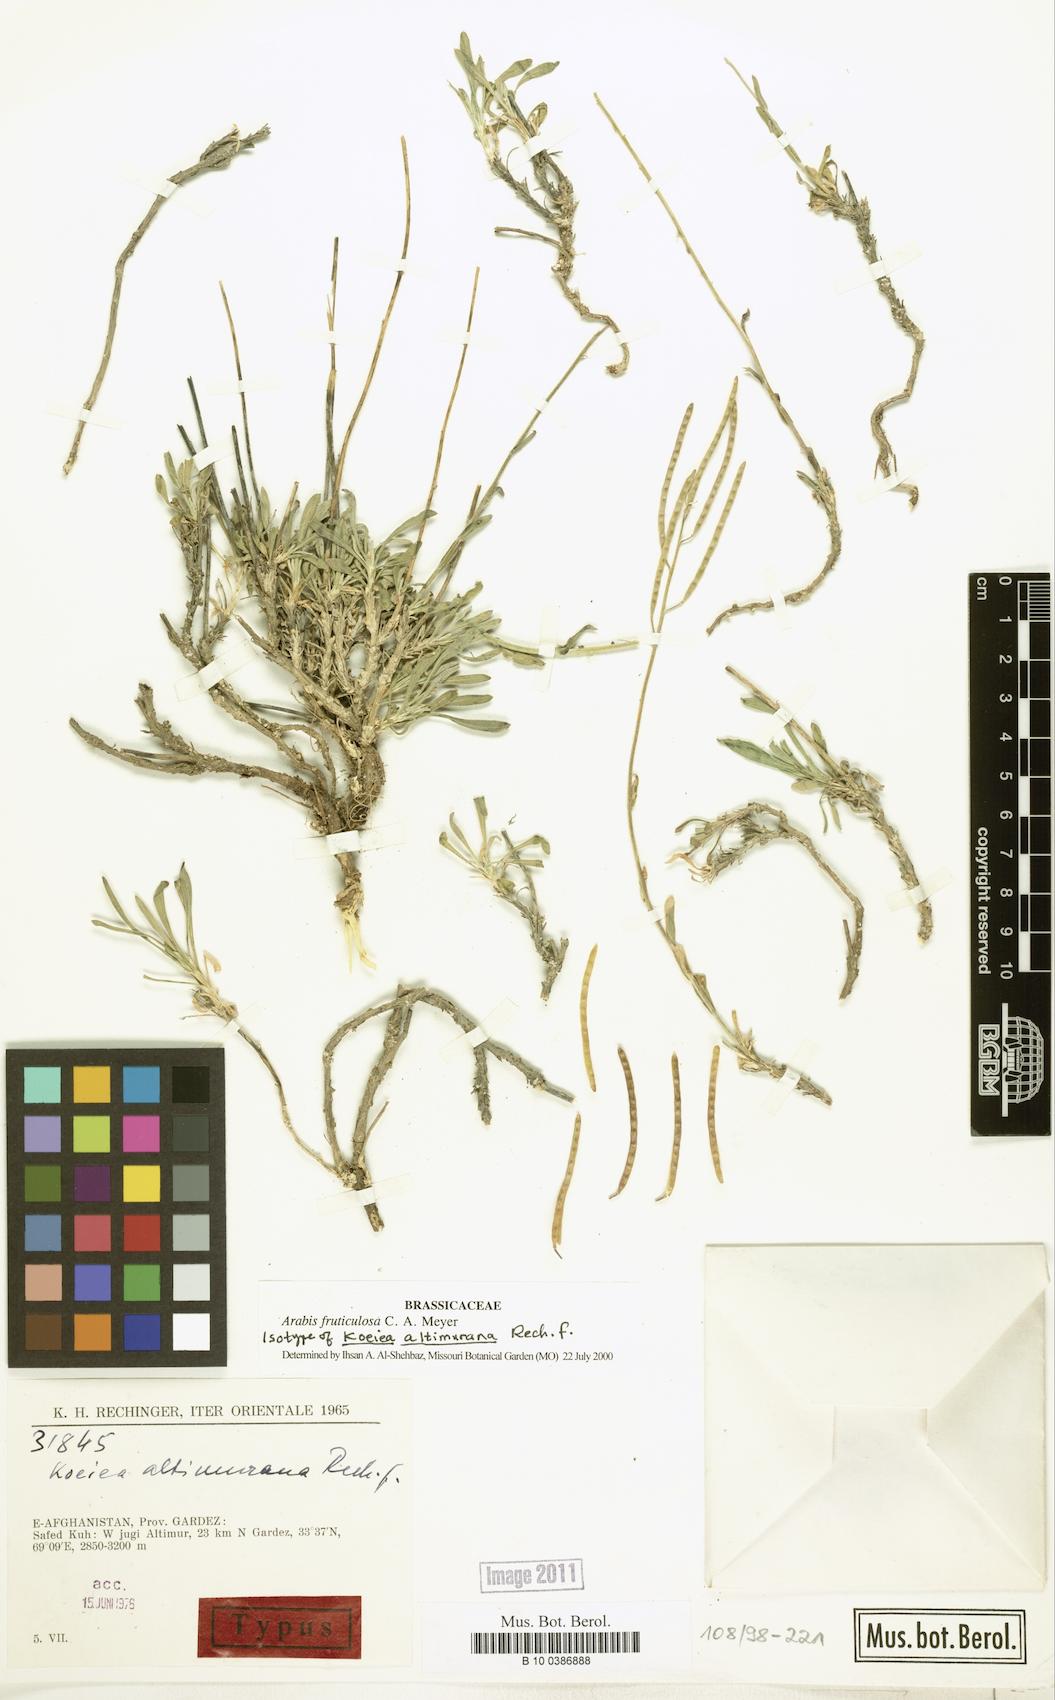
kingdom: Plantae
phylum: Tracheophyta
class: Magnoliopsida
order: Brassicales
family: Brassicaceae
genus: Dendroarabis
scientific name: Dendroarabis fruticulosa
